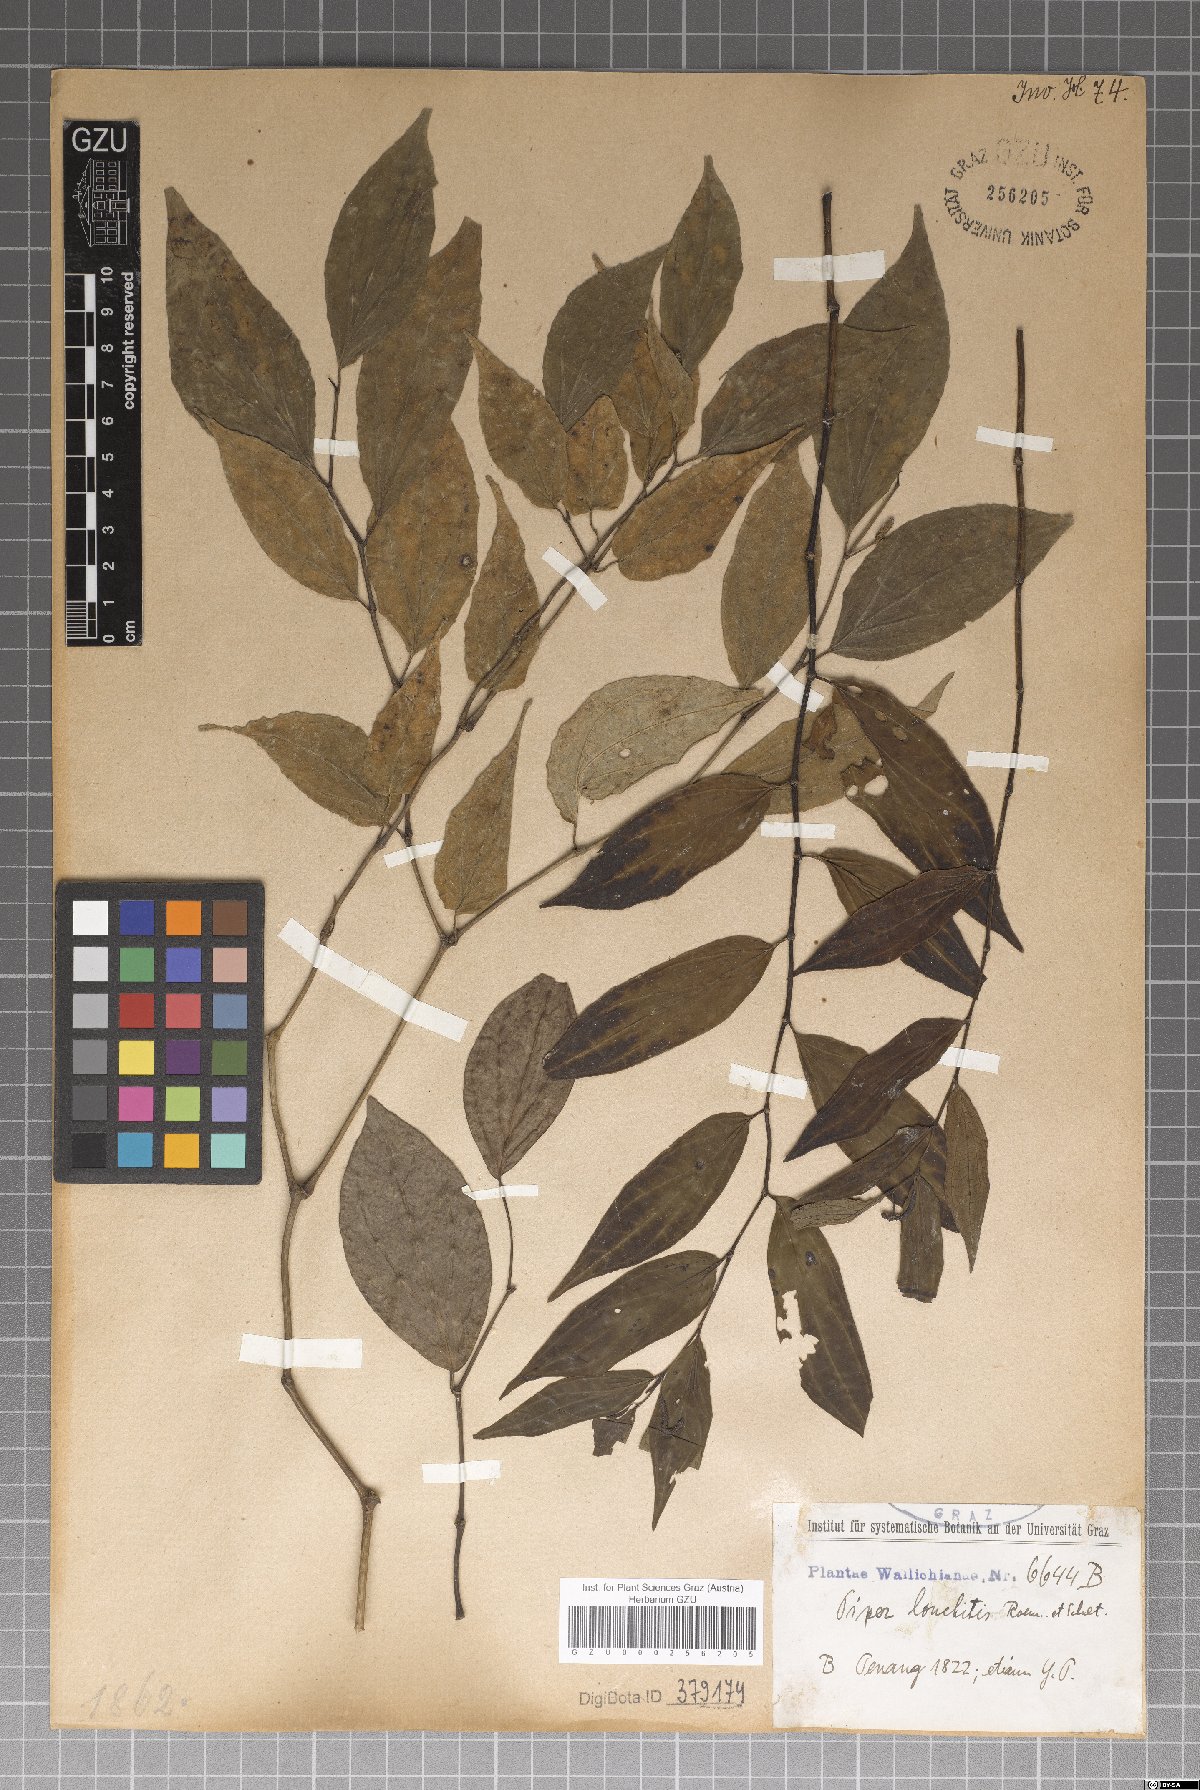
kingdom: Plantae
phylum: Tracheophyta
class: Magnoliopsida
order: Piperales
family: Piperaceae
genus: Piper
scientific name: Piper lonchites
